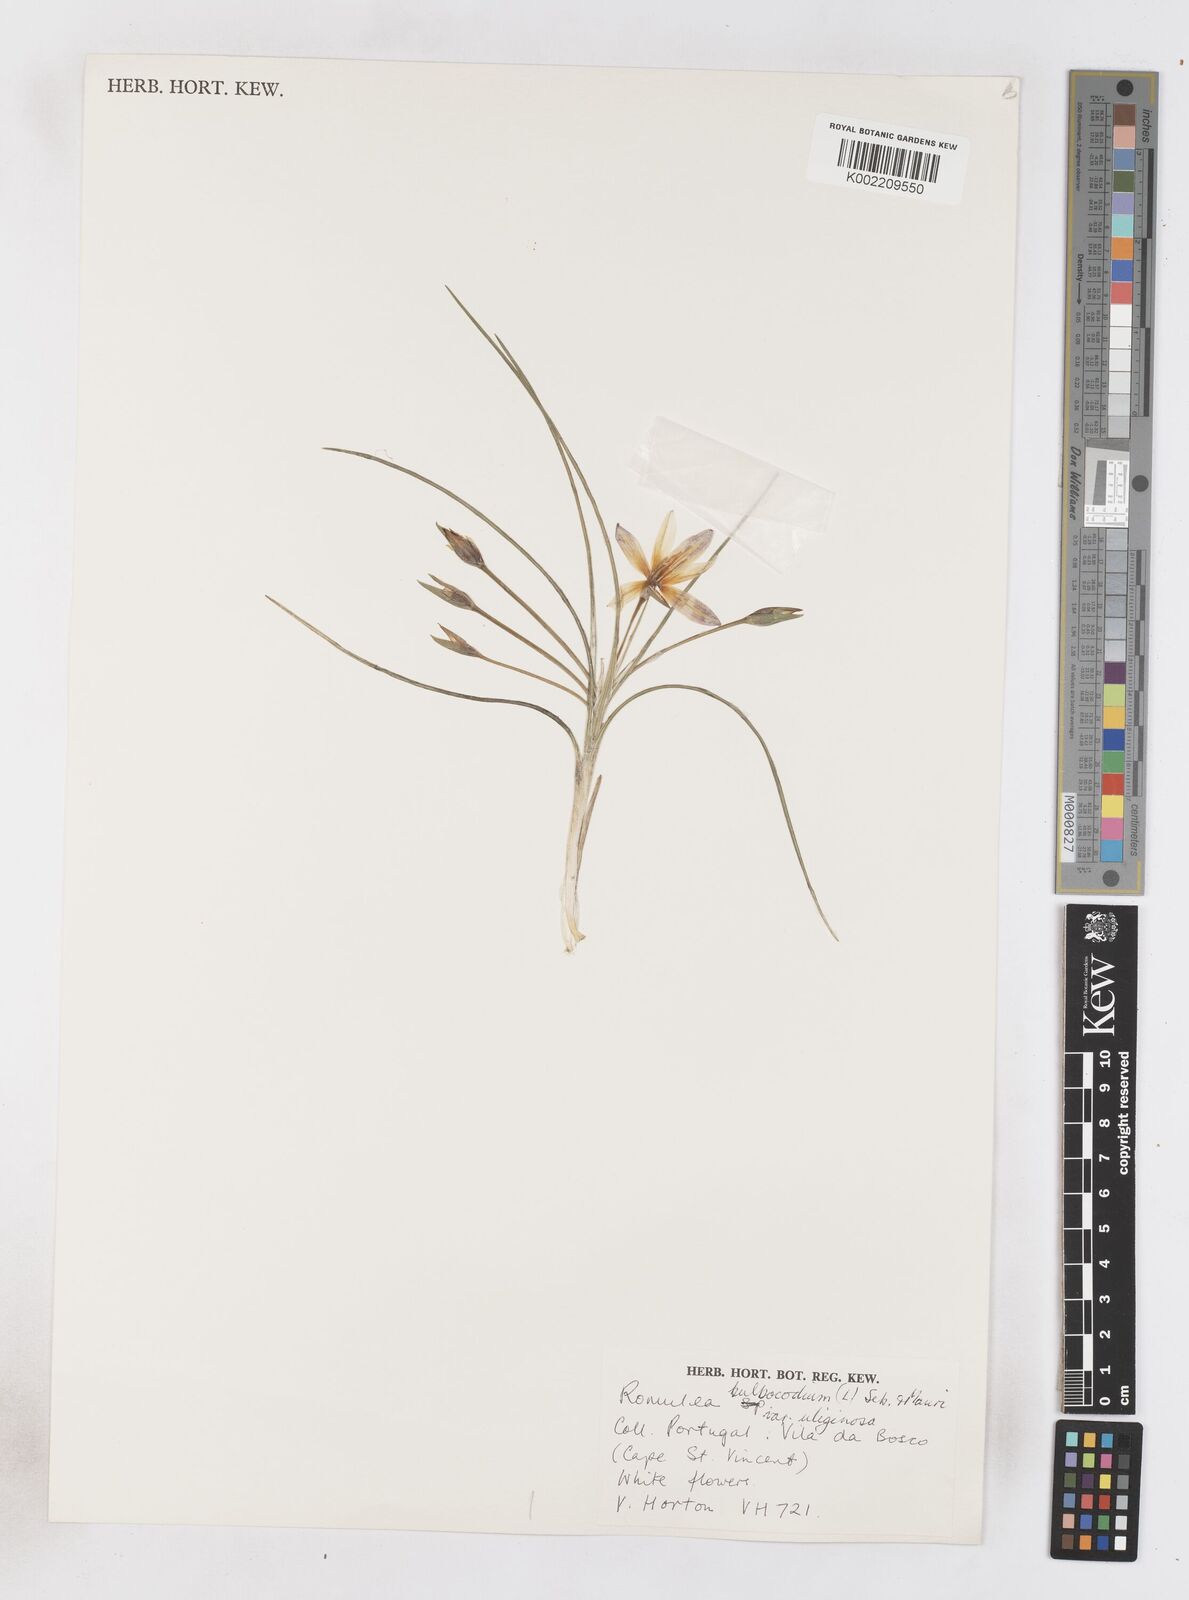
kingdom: Plantae
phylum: Tracheophyta
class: Liliopsida
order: Asparagales
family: Iridaceae
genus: Romulea
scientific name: Romulea bulbocodium
